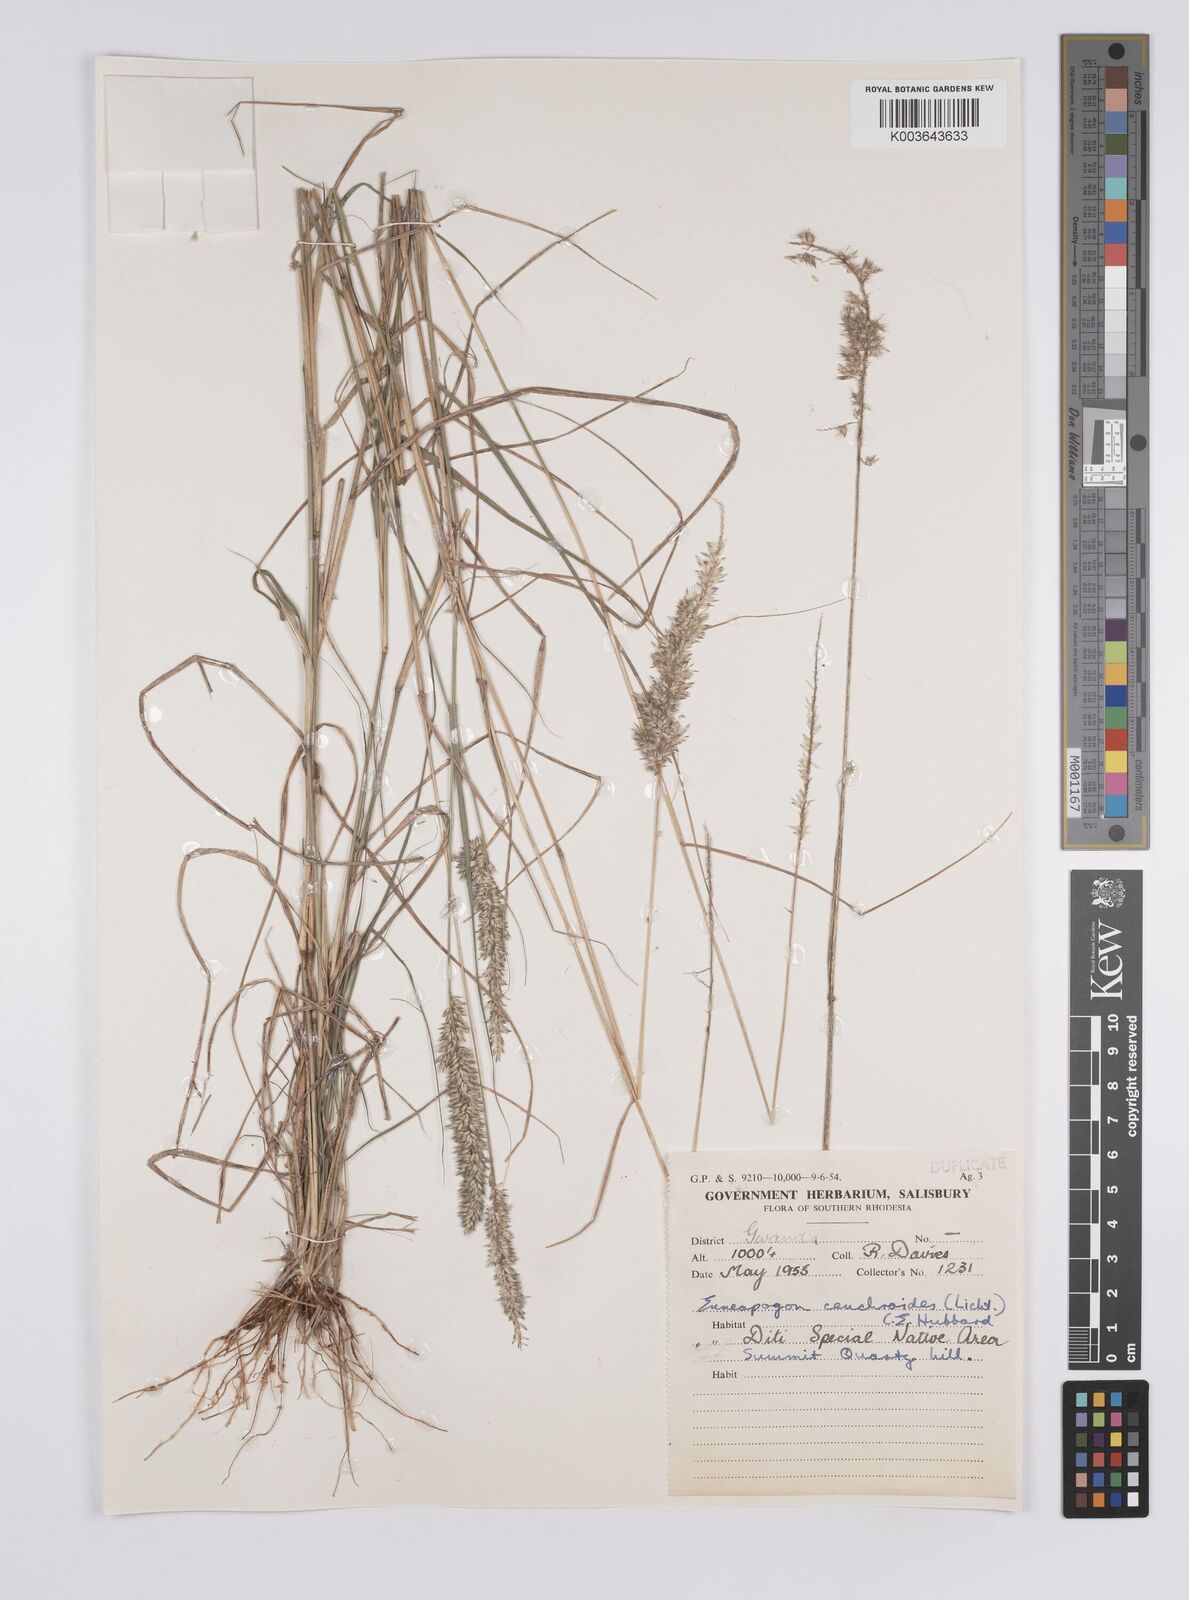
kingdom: Plantae
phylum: Tracheophyta
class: Liliopsida
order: Poales
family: Poaceae
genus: Enneapogon
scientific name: Enneapogon cenchroides
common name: Soft feather pappusgrass
